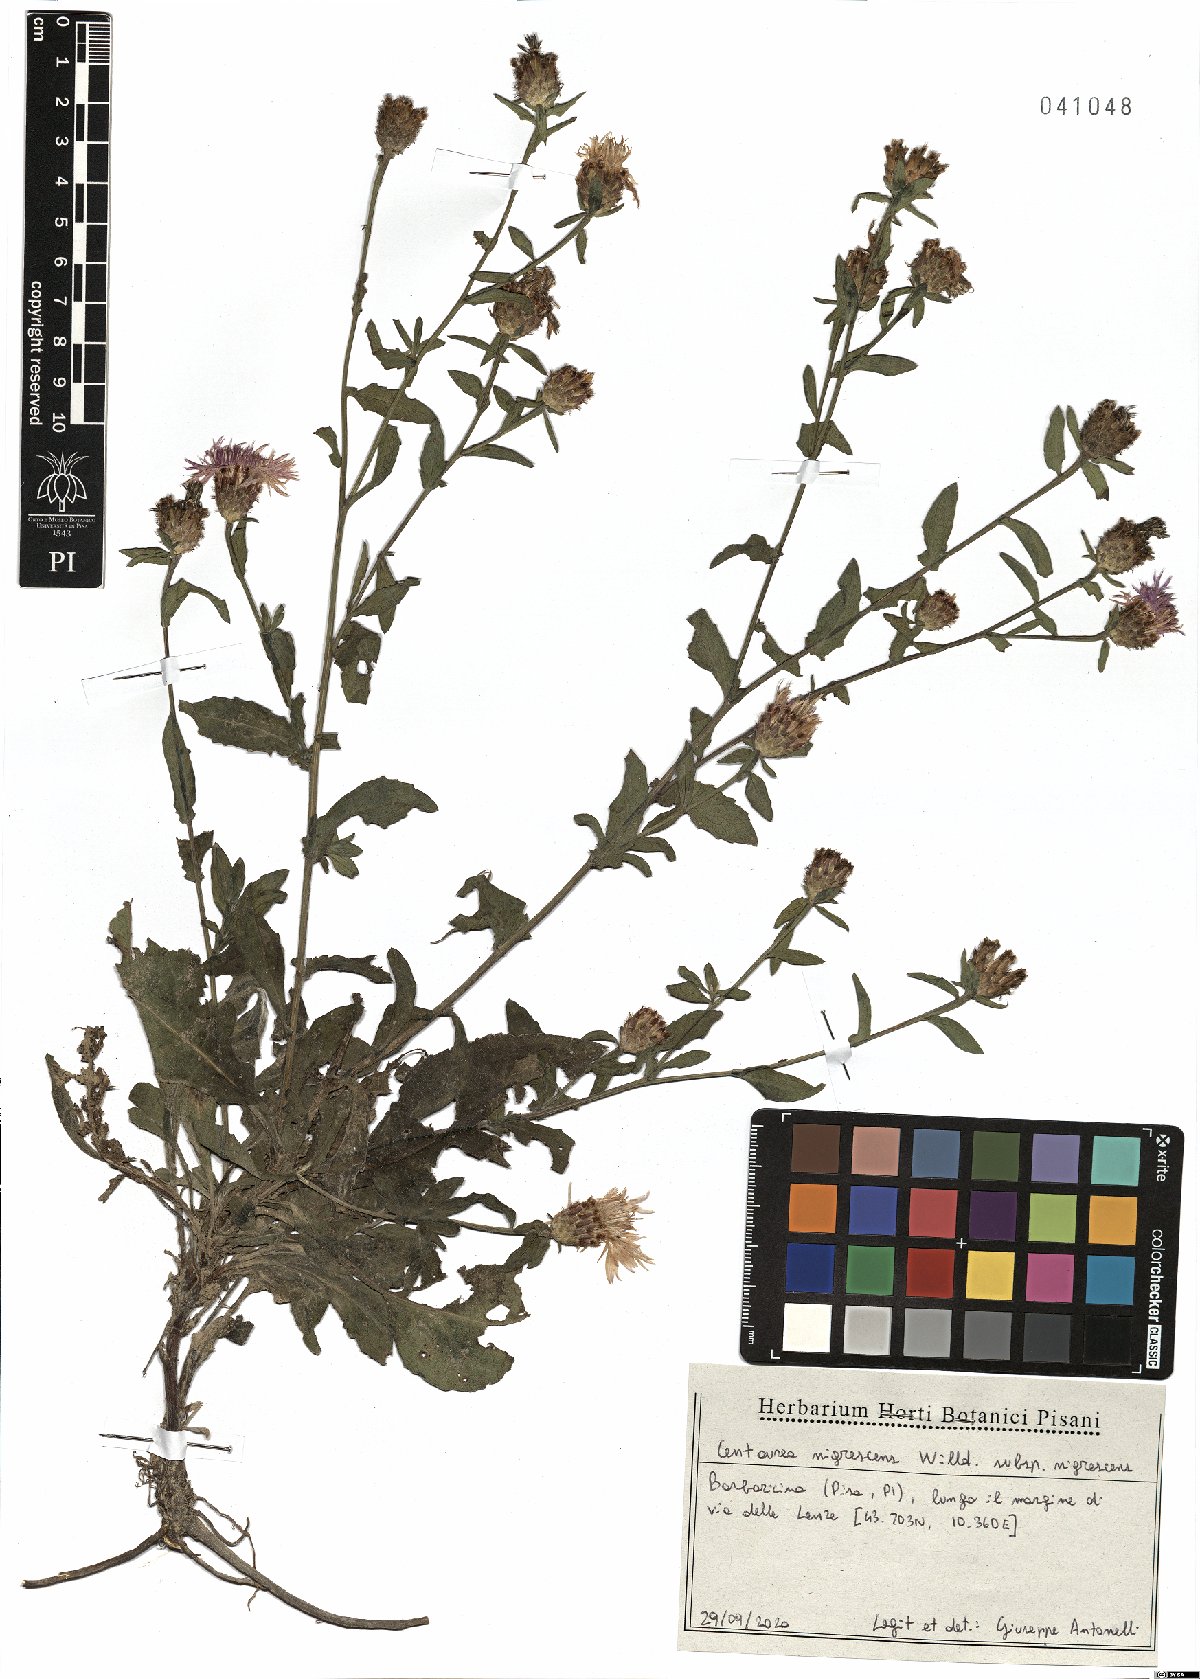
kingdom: Plantae
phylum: Tracheophyta
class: Magnoliopsida
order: Asterales
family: Asteraceae
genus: Centaurea
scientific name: Centaurea nigrescens
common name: Tyrol knapweed
